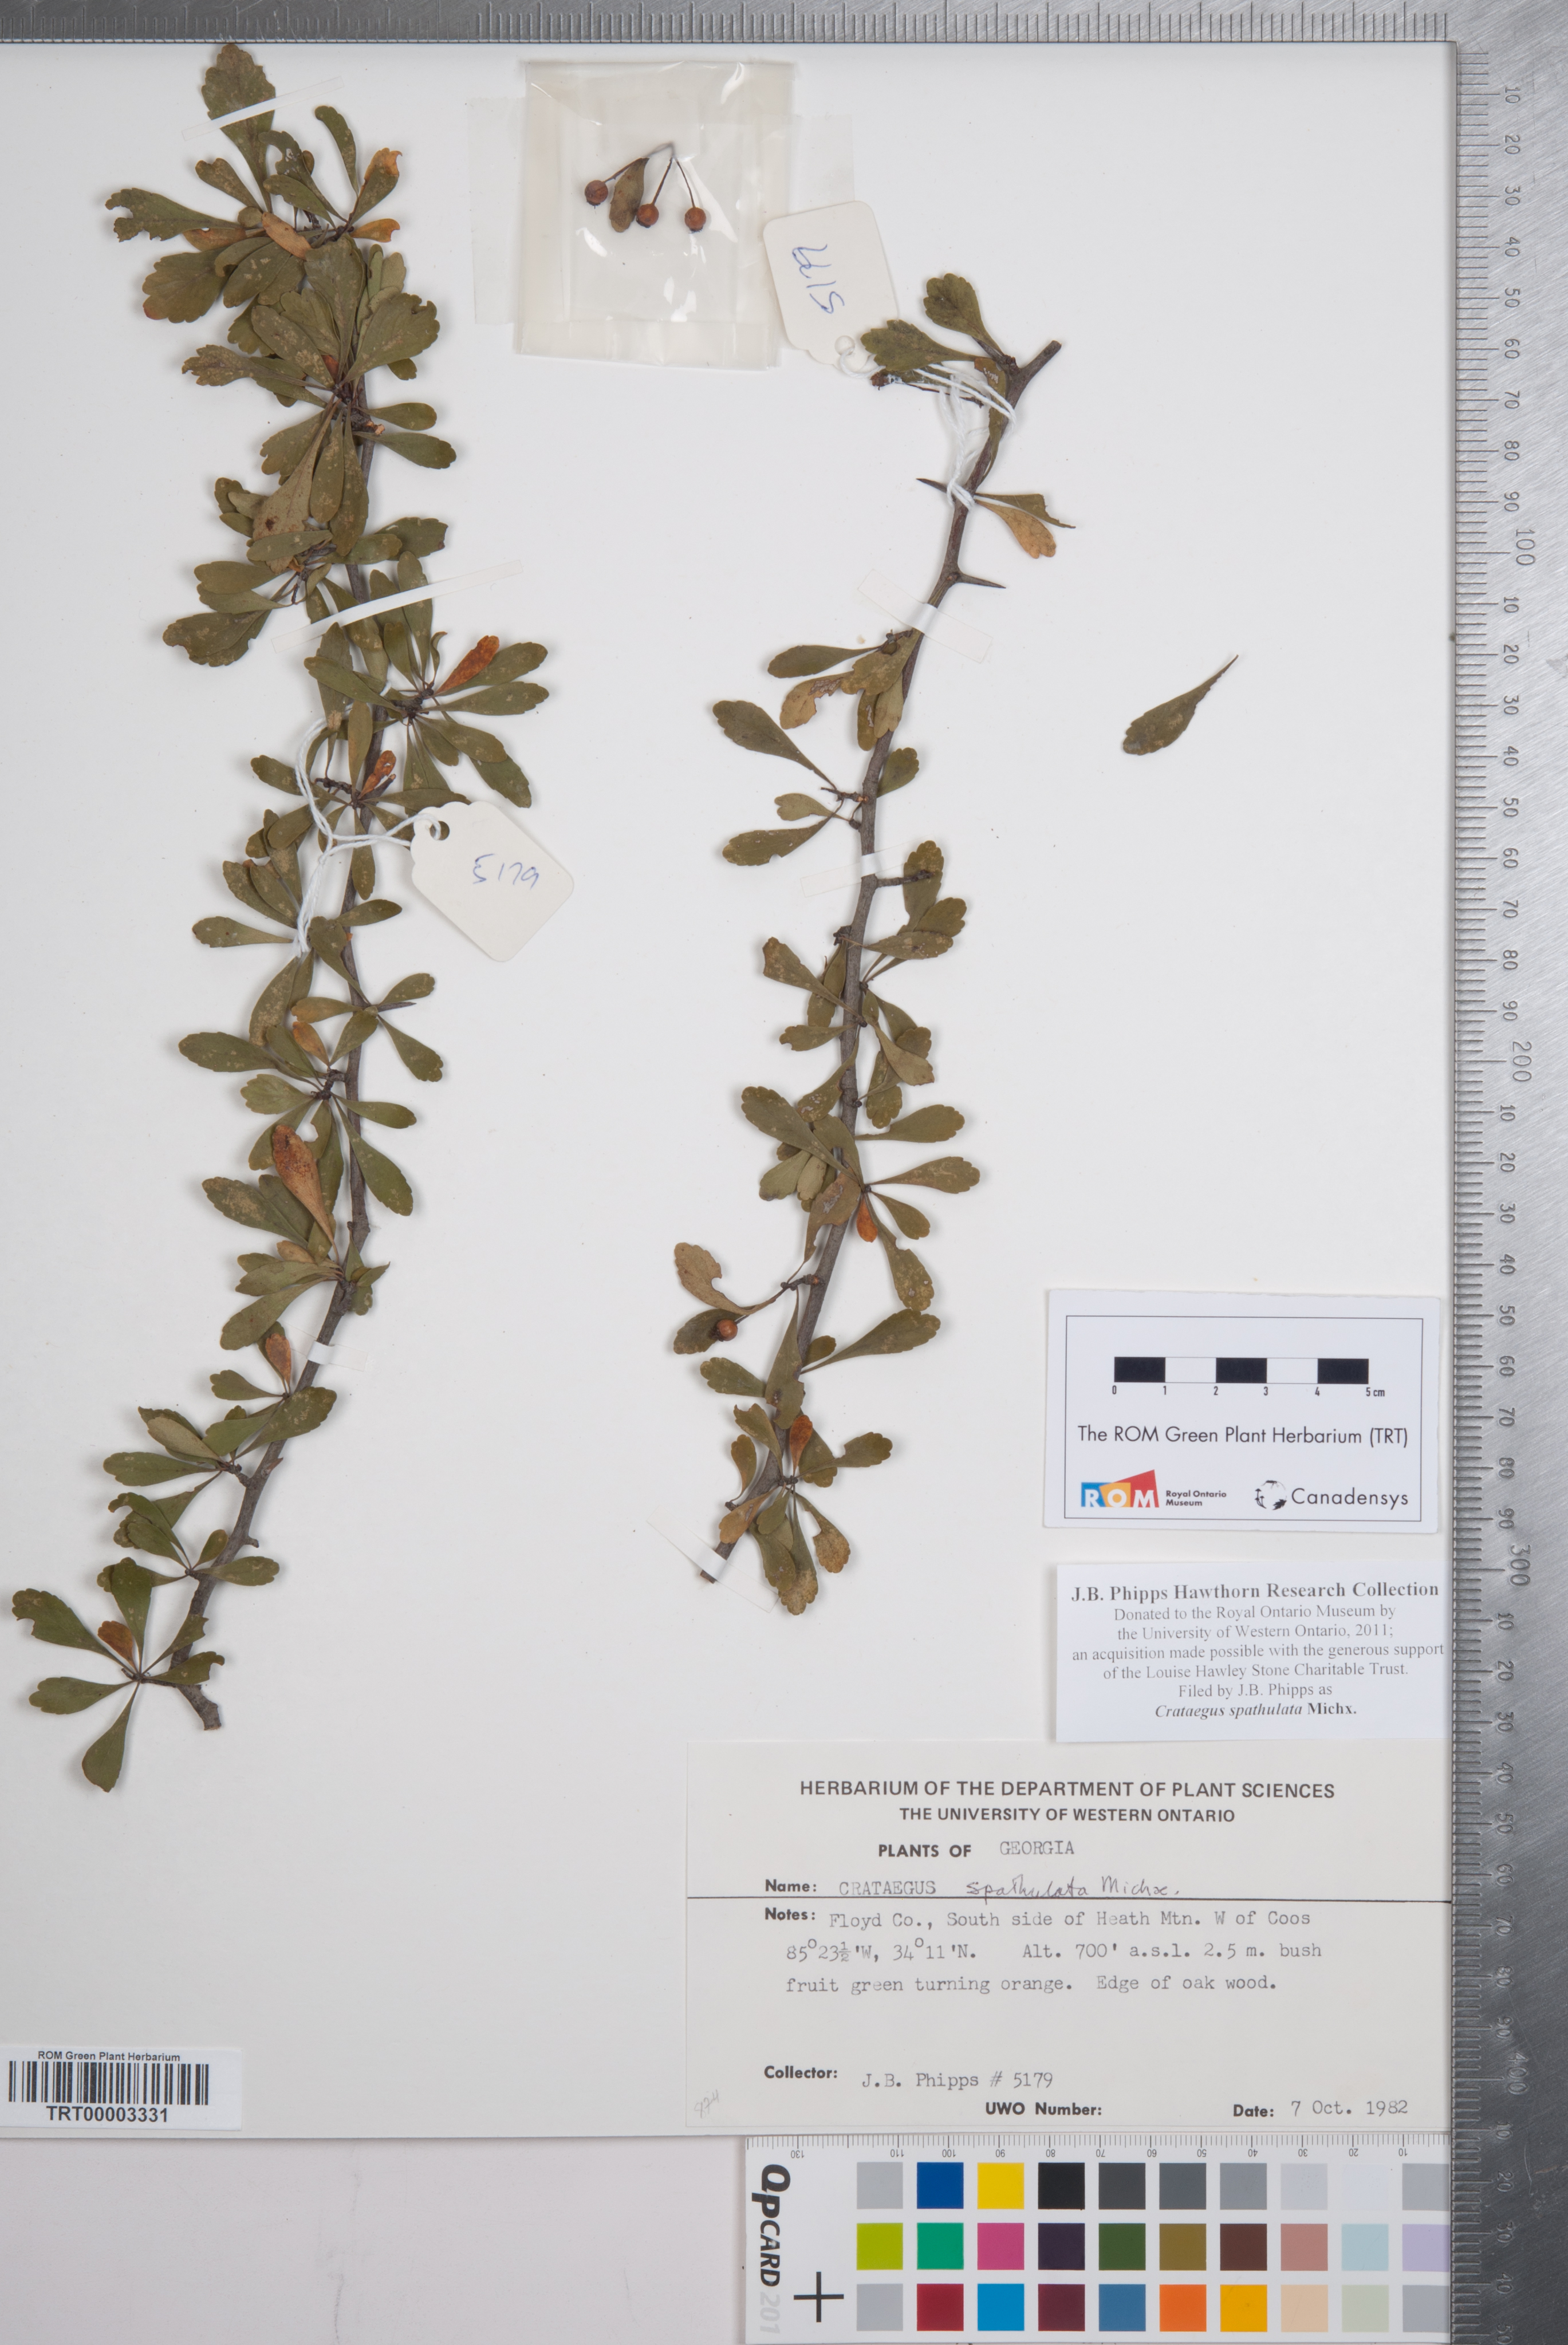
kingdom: Plantae
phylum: Tracheophyta
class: Magnoliopsida
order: Rosales
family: Rosaceae
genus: Crataegus
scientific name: Crataegus spathulata
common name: Littlehip hawthorn
